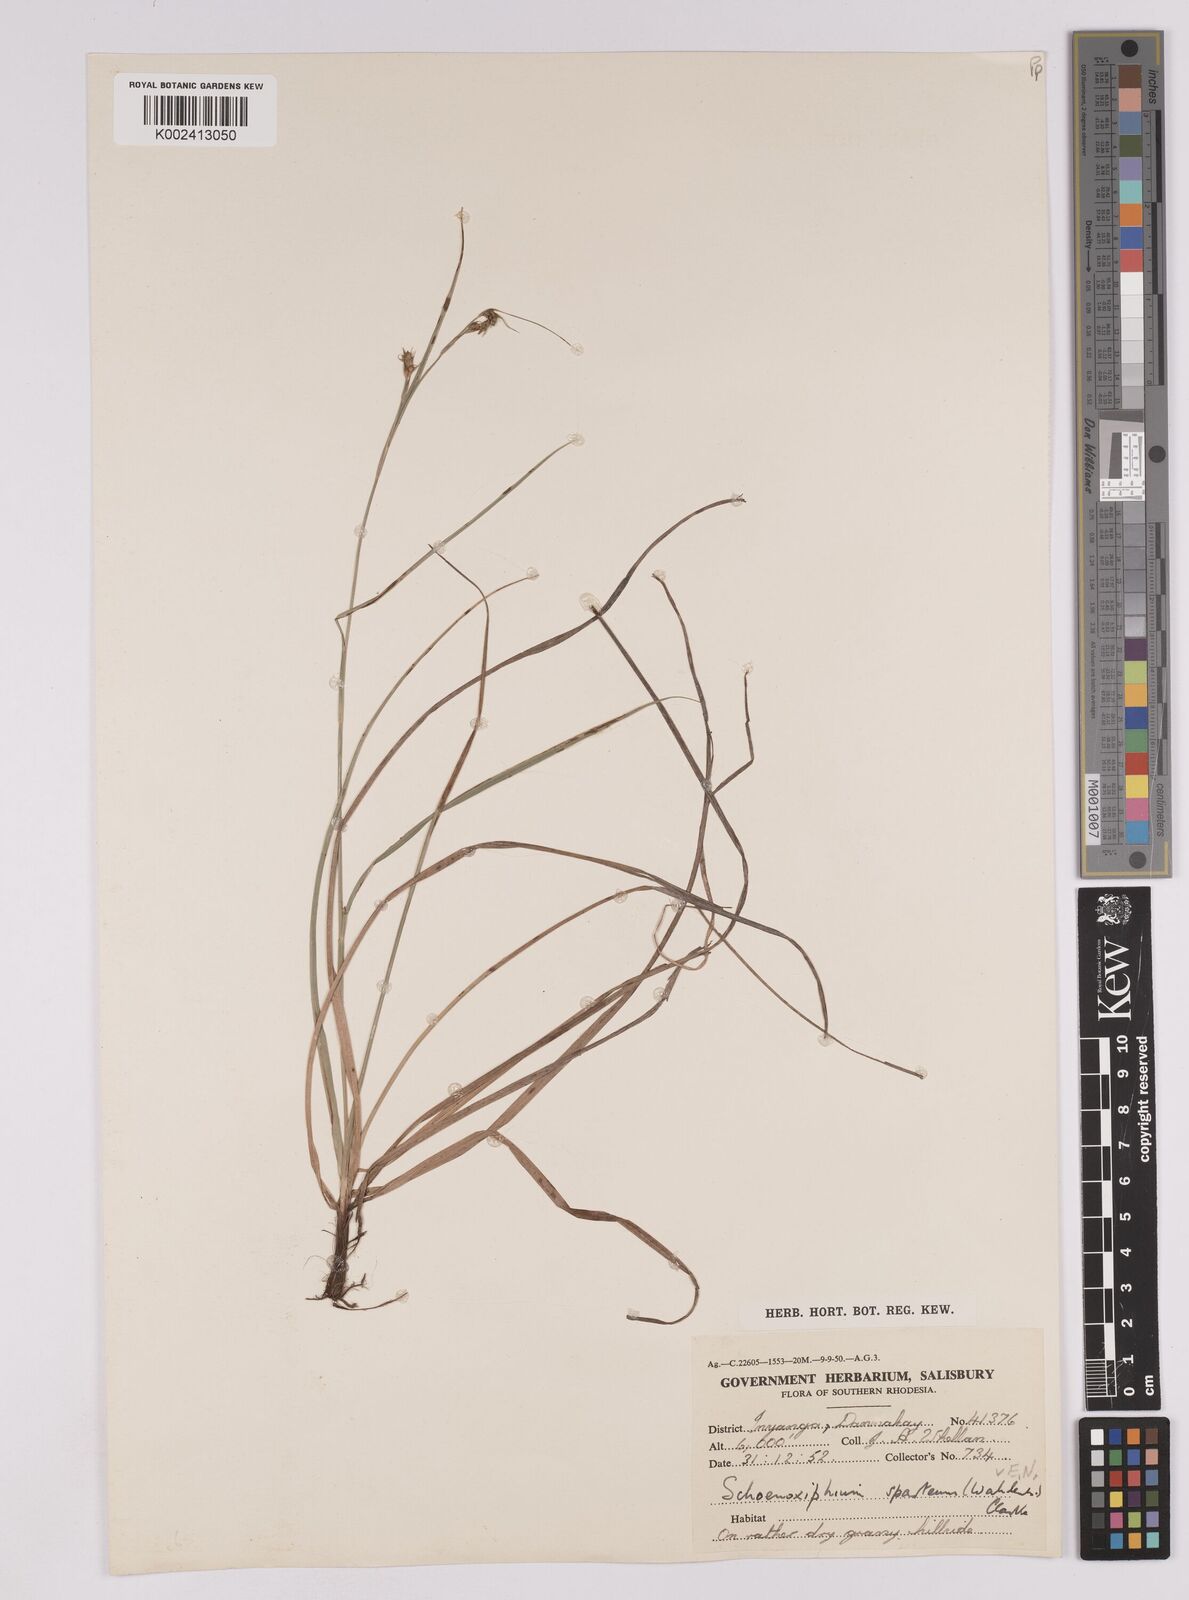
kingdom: Plantae
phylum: Tracheophyta
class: Liliopsida
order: Poales
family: Cyperaceae
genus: Carex
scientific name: Carex spartea
